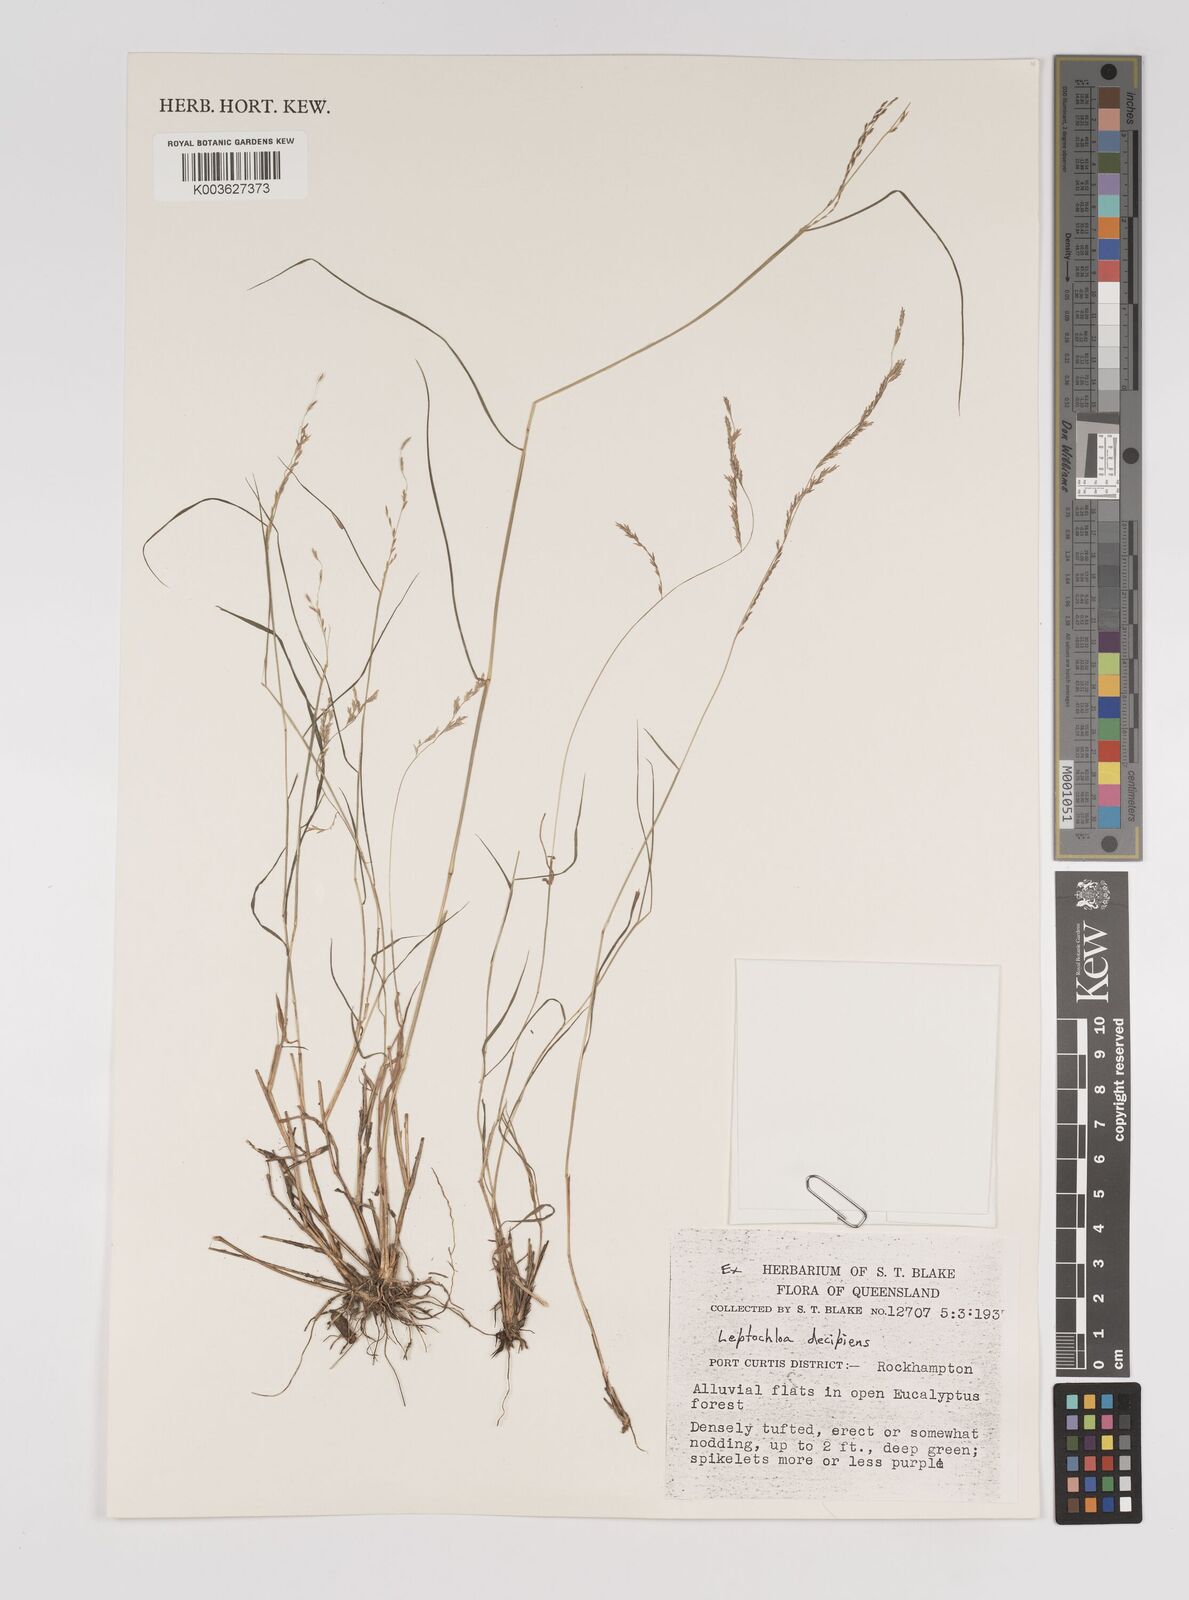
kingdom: Plantae
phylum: Tracheophyta
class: Liliopsida
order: Poales
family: Poaceae
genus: Leptochloa
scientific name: Leptochloa decipiens
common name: Australian sprangletop
